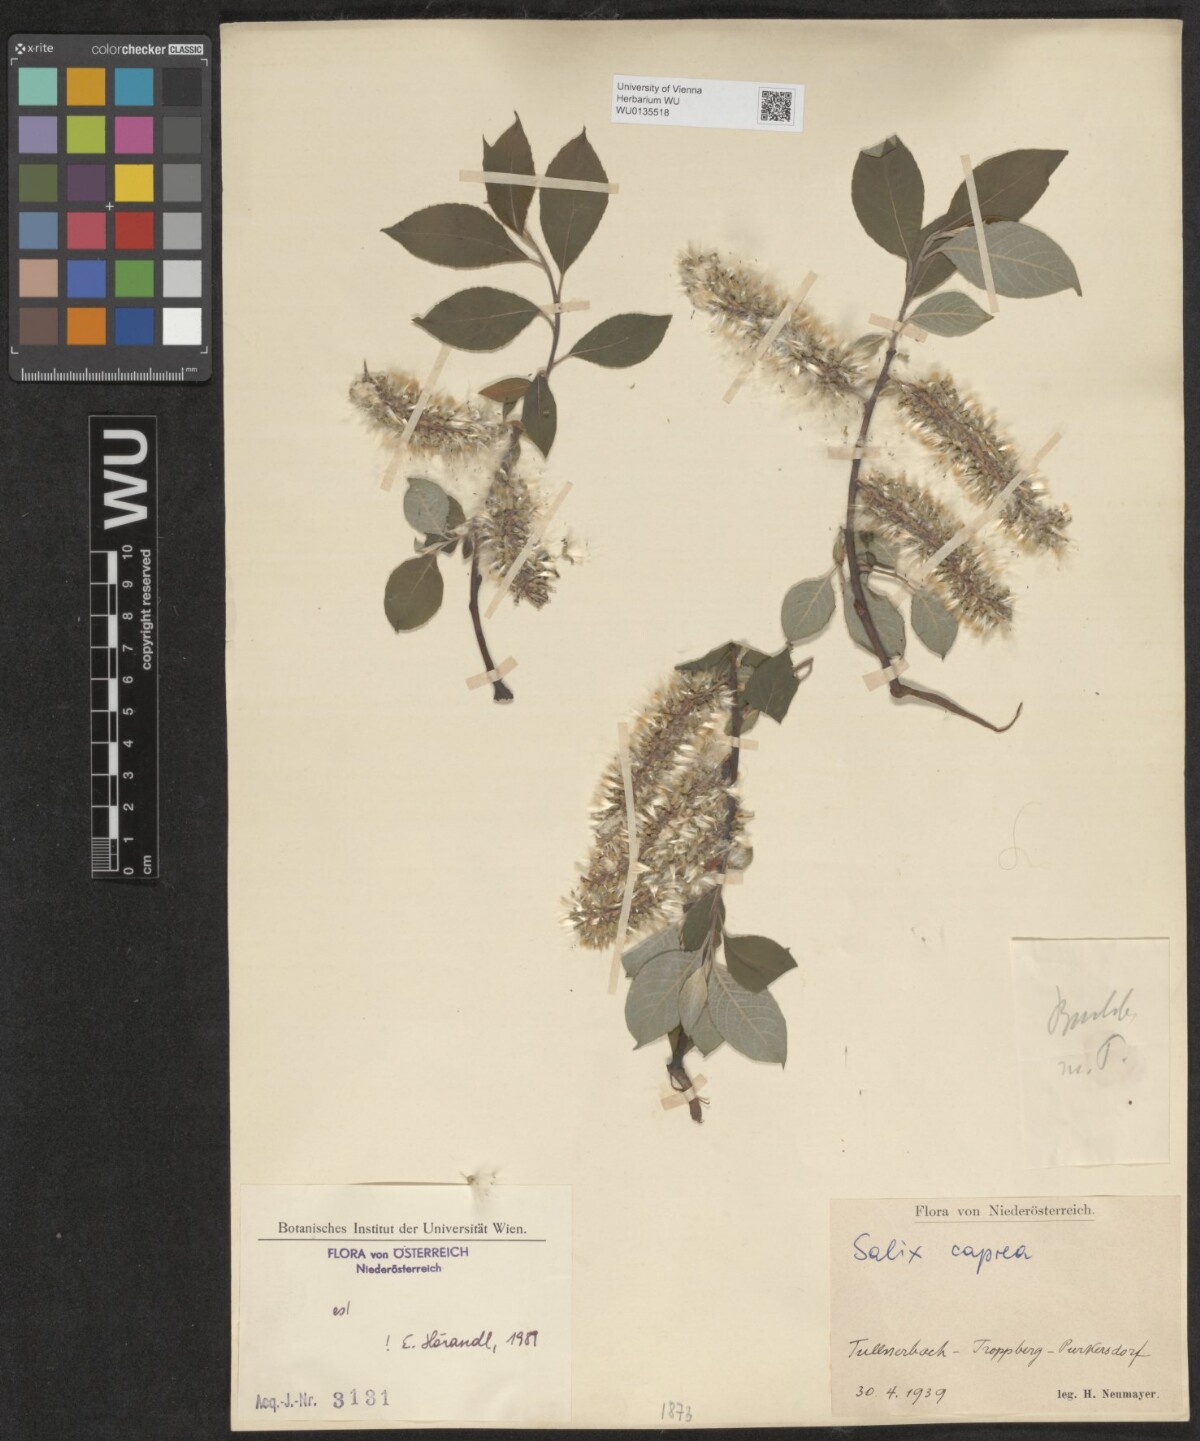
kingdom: Plantae
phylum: Tracheophyta
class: Magnoliopsida
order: Malpighiales
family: Salicaceae
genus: Salix
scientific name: Salix caprea
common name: Goat willow
